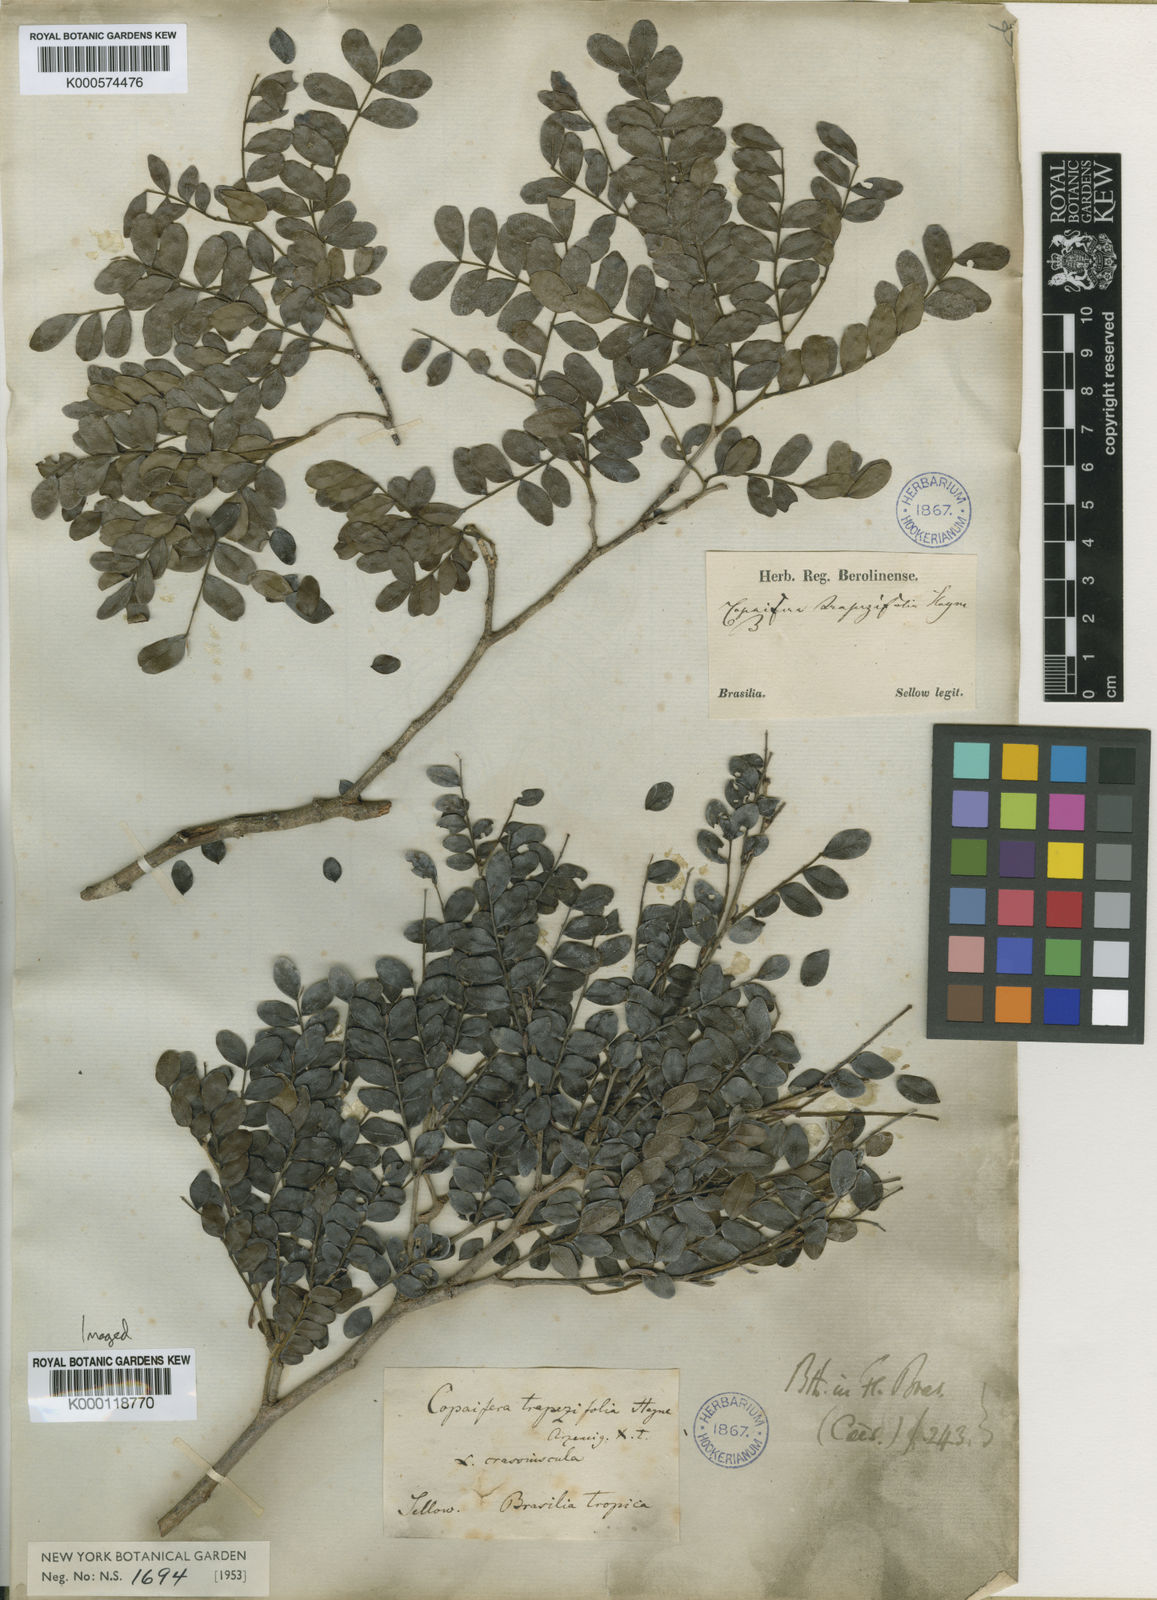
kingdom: Plantae
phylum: Tracheophyta
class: Magnoliopsida
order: Fabales
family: Fabaceae
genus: Copaifera
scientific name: Copaifera trapezifolia
